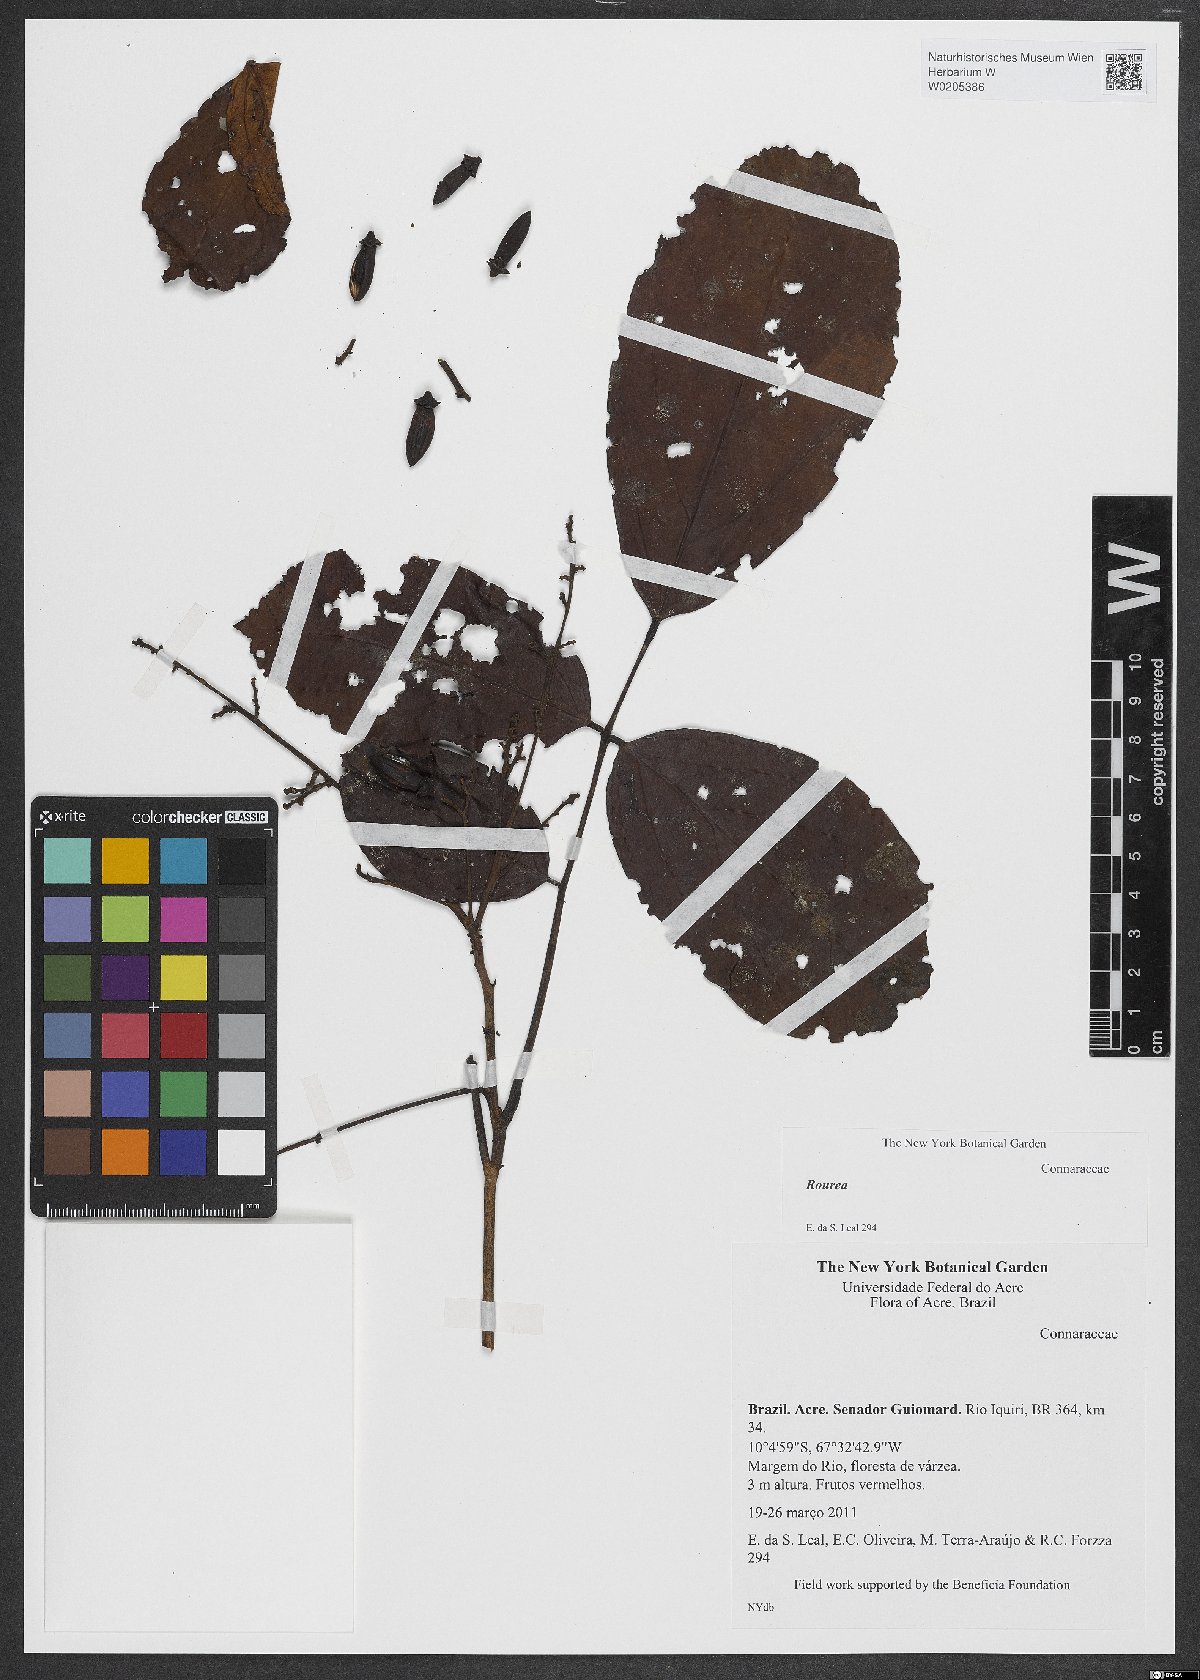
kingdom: Plantae
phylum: Tracheophyta
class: Magnoliopsida
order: Oxalidales
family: Connaraceae
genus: Rourea
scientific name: Rourea
